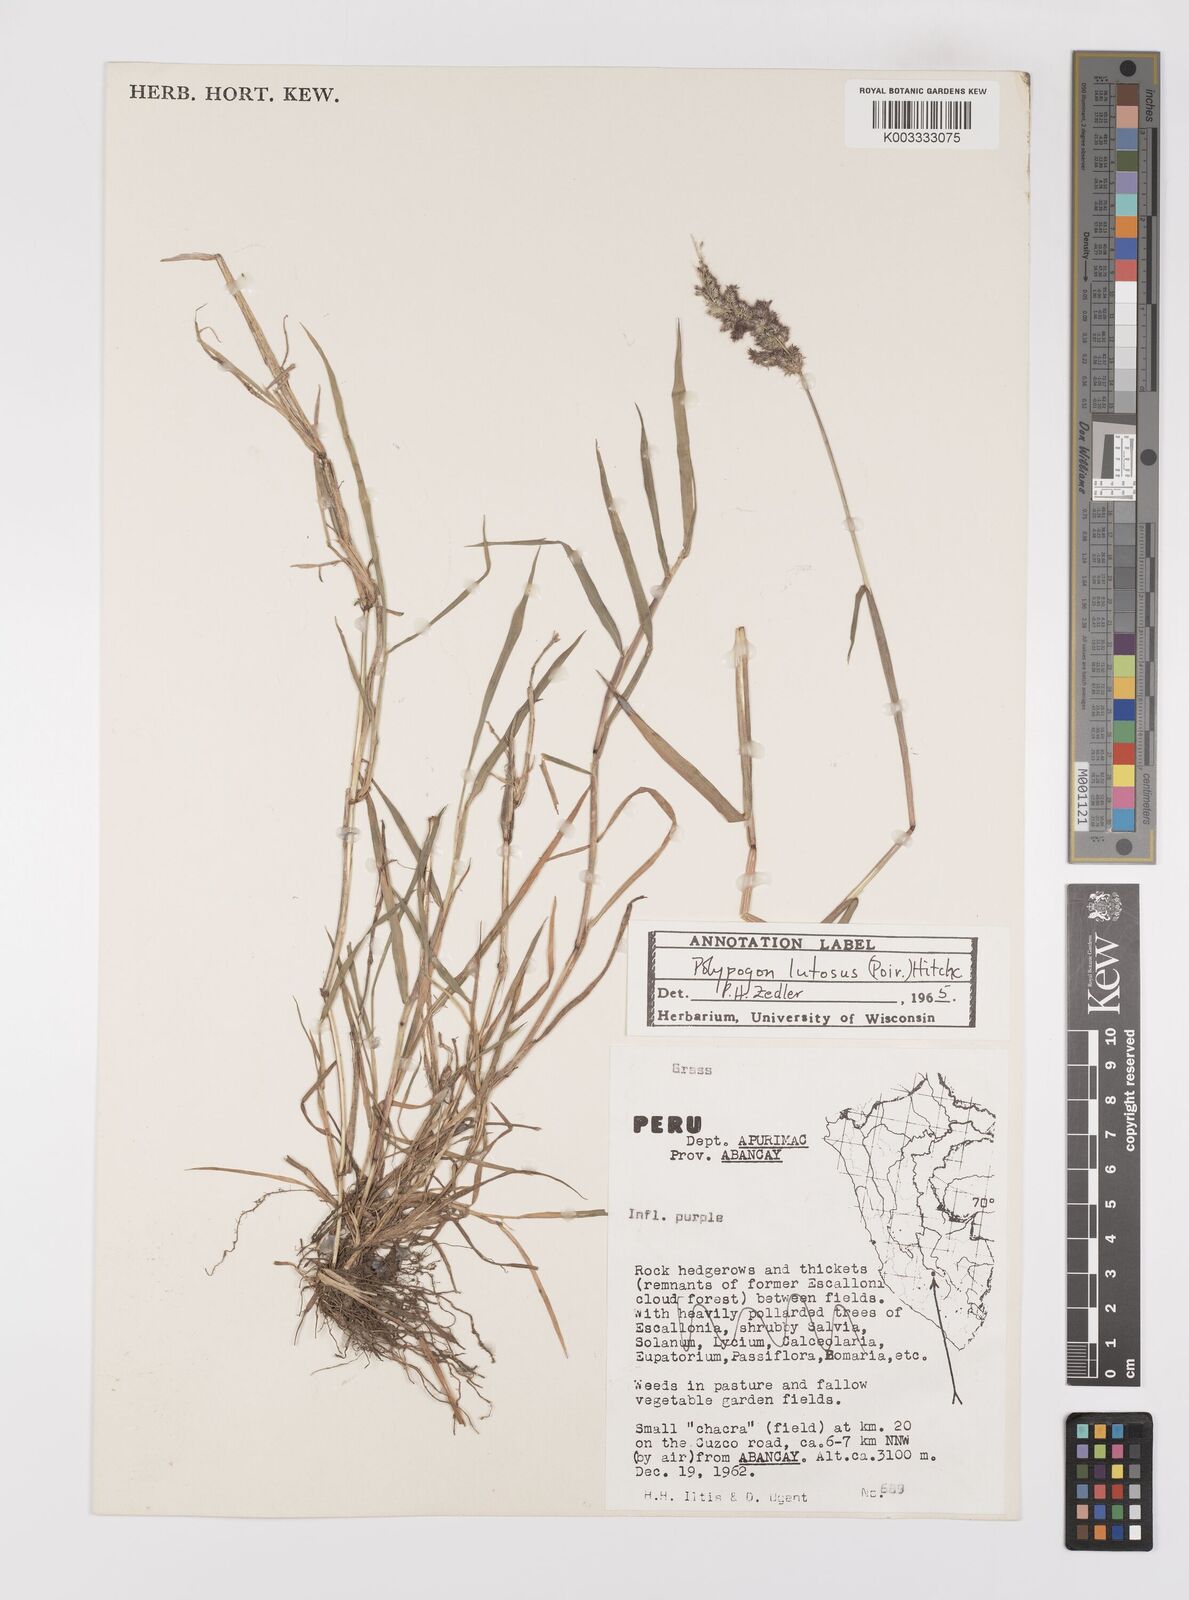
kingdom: Plantae
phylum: Tracheophyta
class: Liliopsida
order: Poales
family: Poaceae
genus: Polypogon
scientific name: Polypogon interruptus
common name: Ditch polypogon
